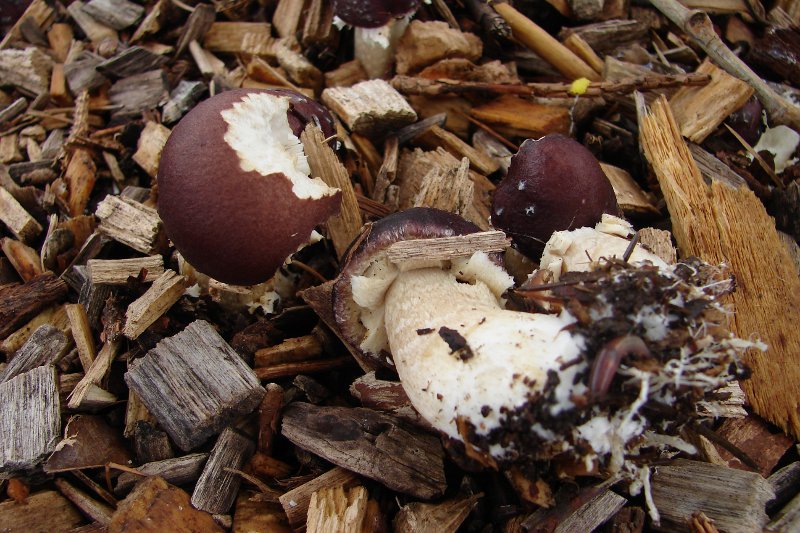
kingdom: Fungi
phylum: Basidiomycota
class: Agaricomycetes
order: Agaricales
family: Strophariaceae
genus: Stropharia
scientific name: Stropharia rugosoannulata
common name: rødbrun bredblad
